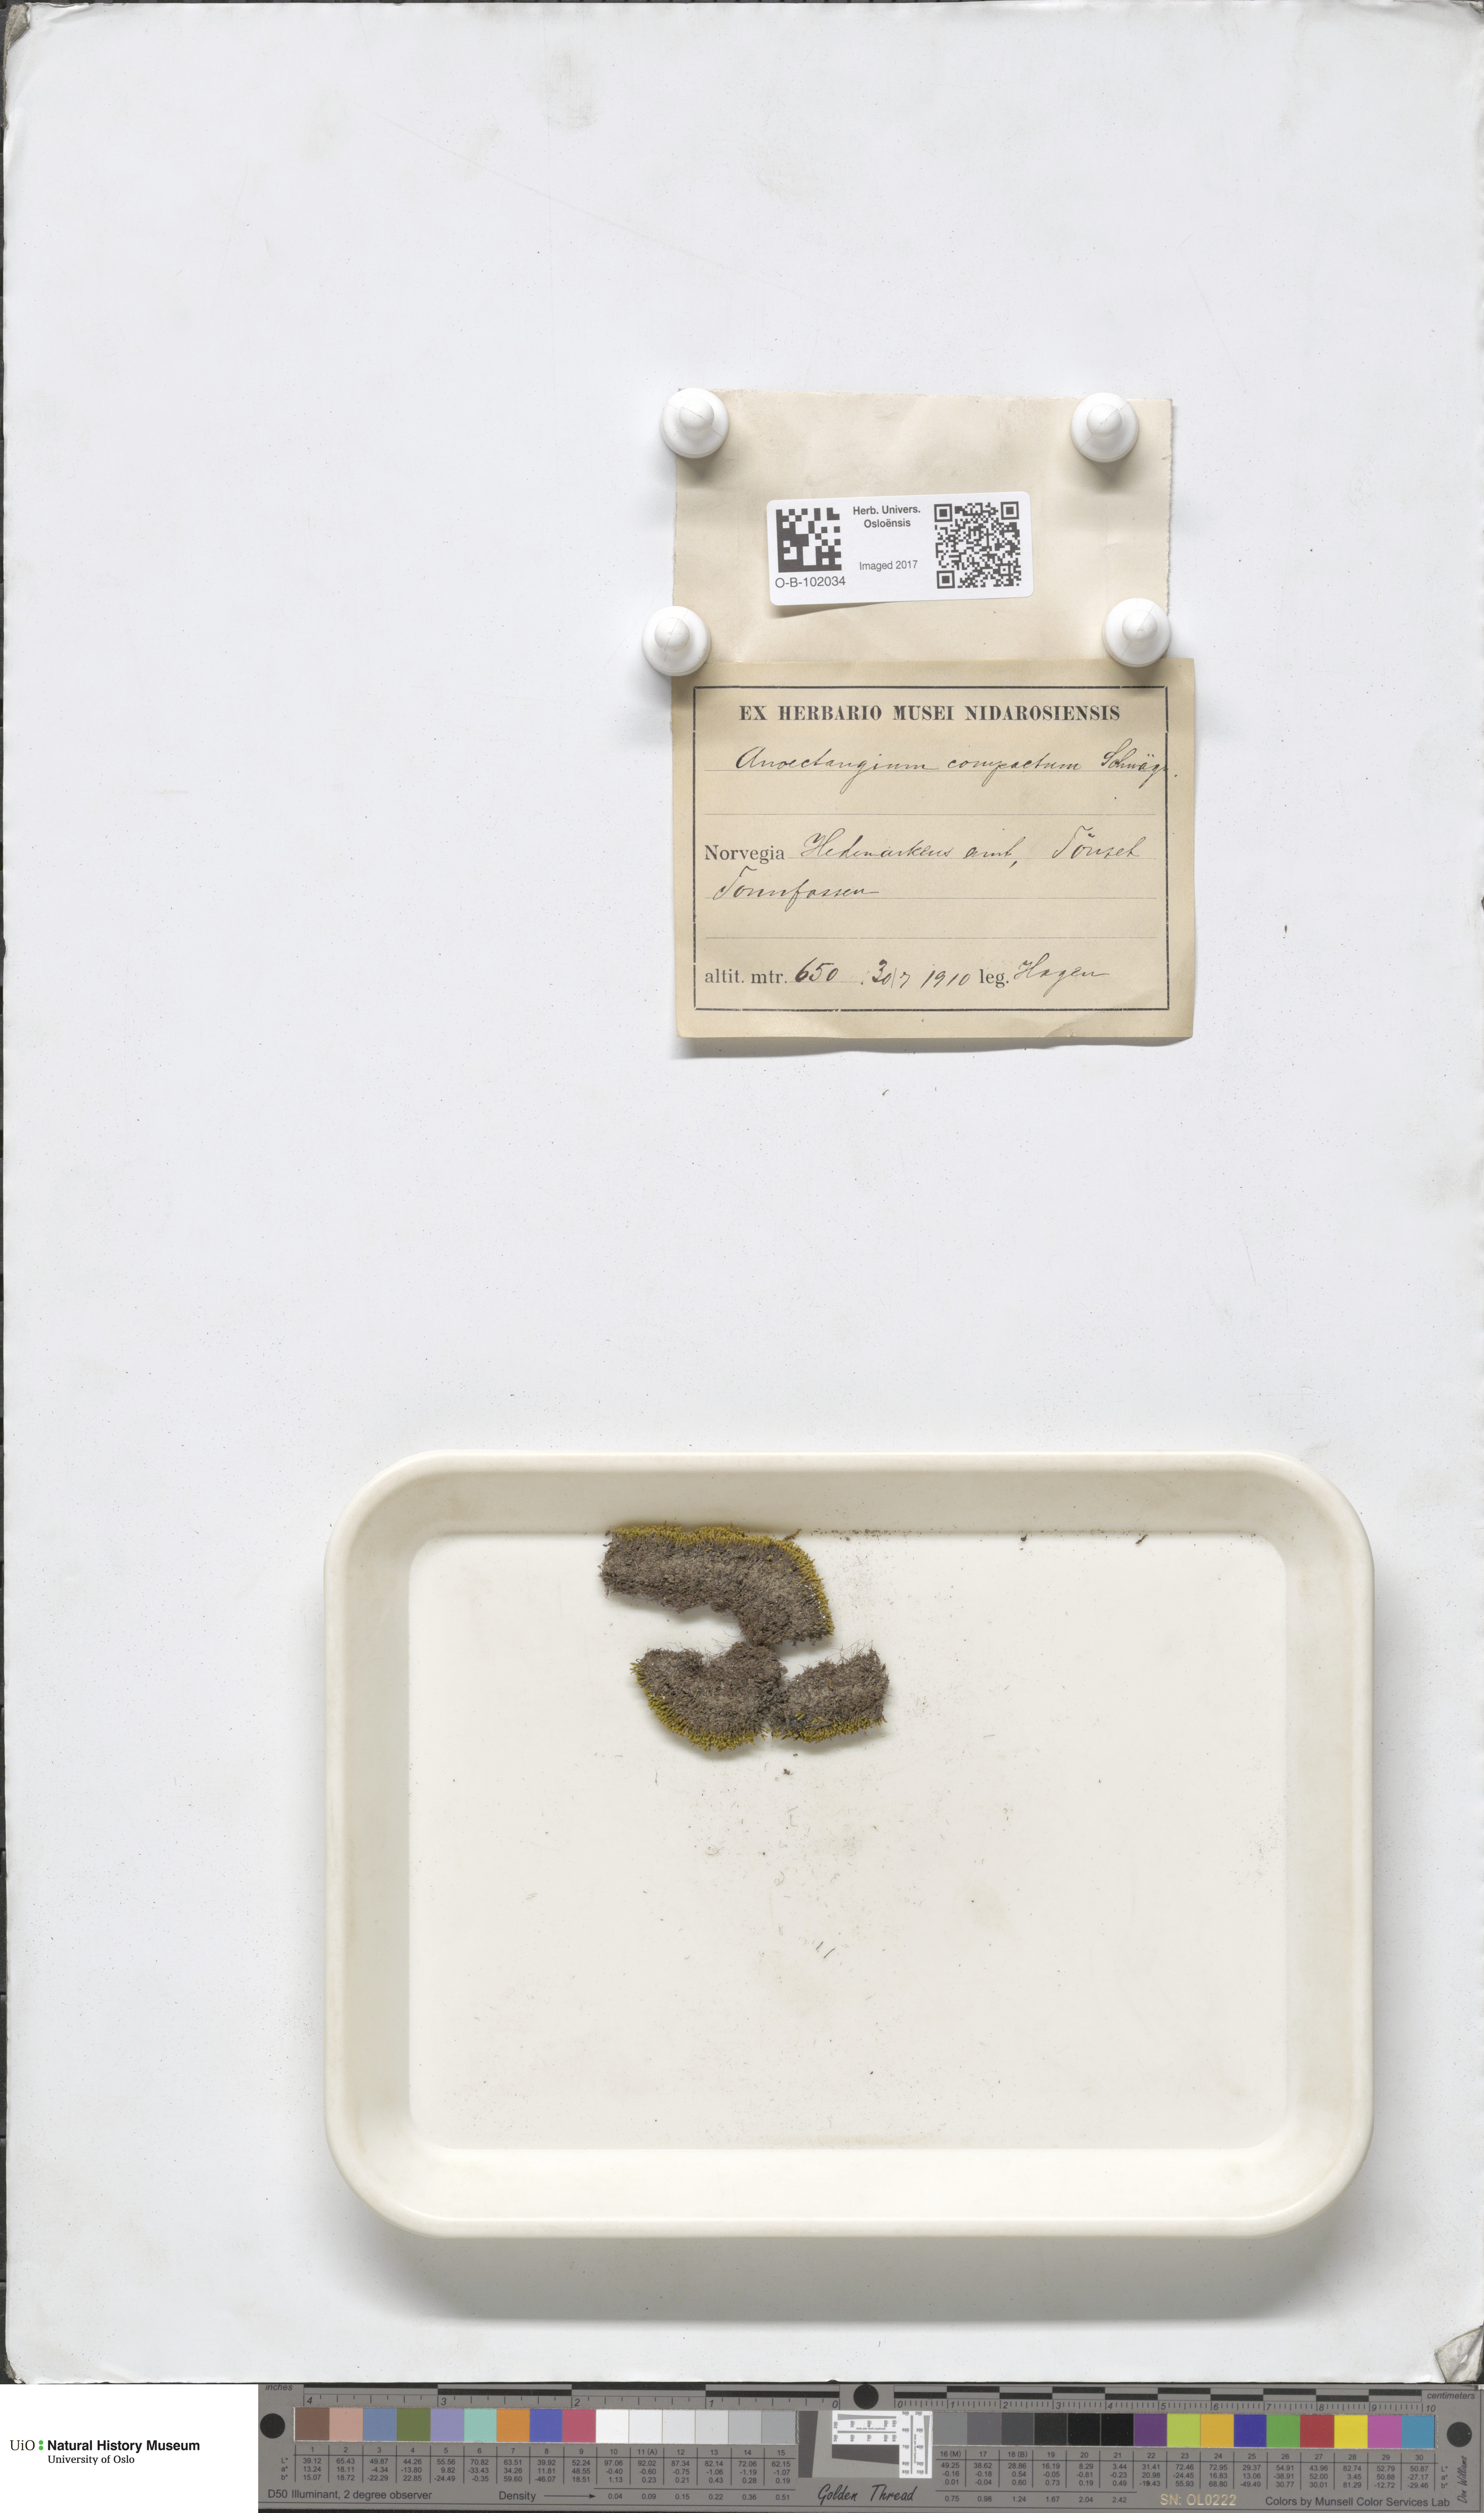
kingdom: Plantae
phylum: Bryophyta
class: Bryopsida
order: Pottiales
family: Pottiaceae
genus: Anoectangium
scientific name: Anoectangium aestivum
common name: Summer-moss
